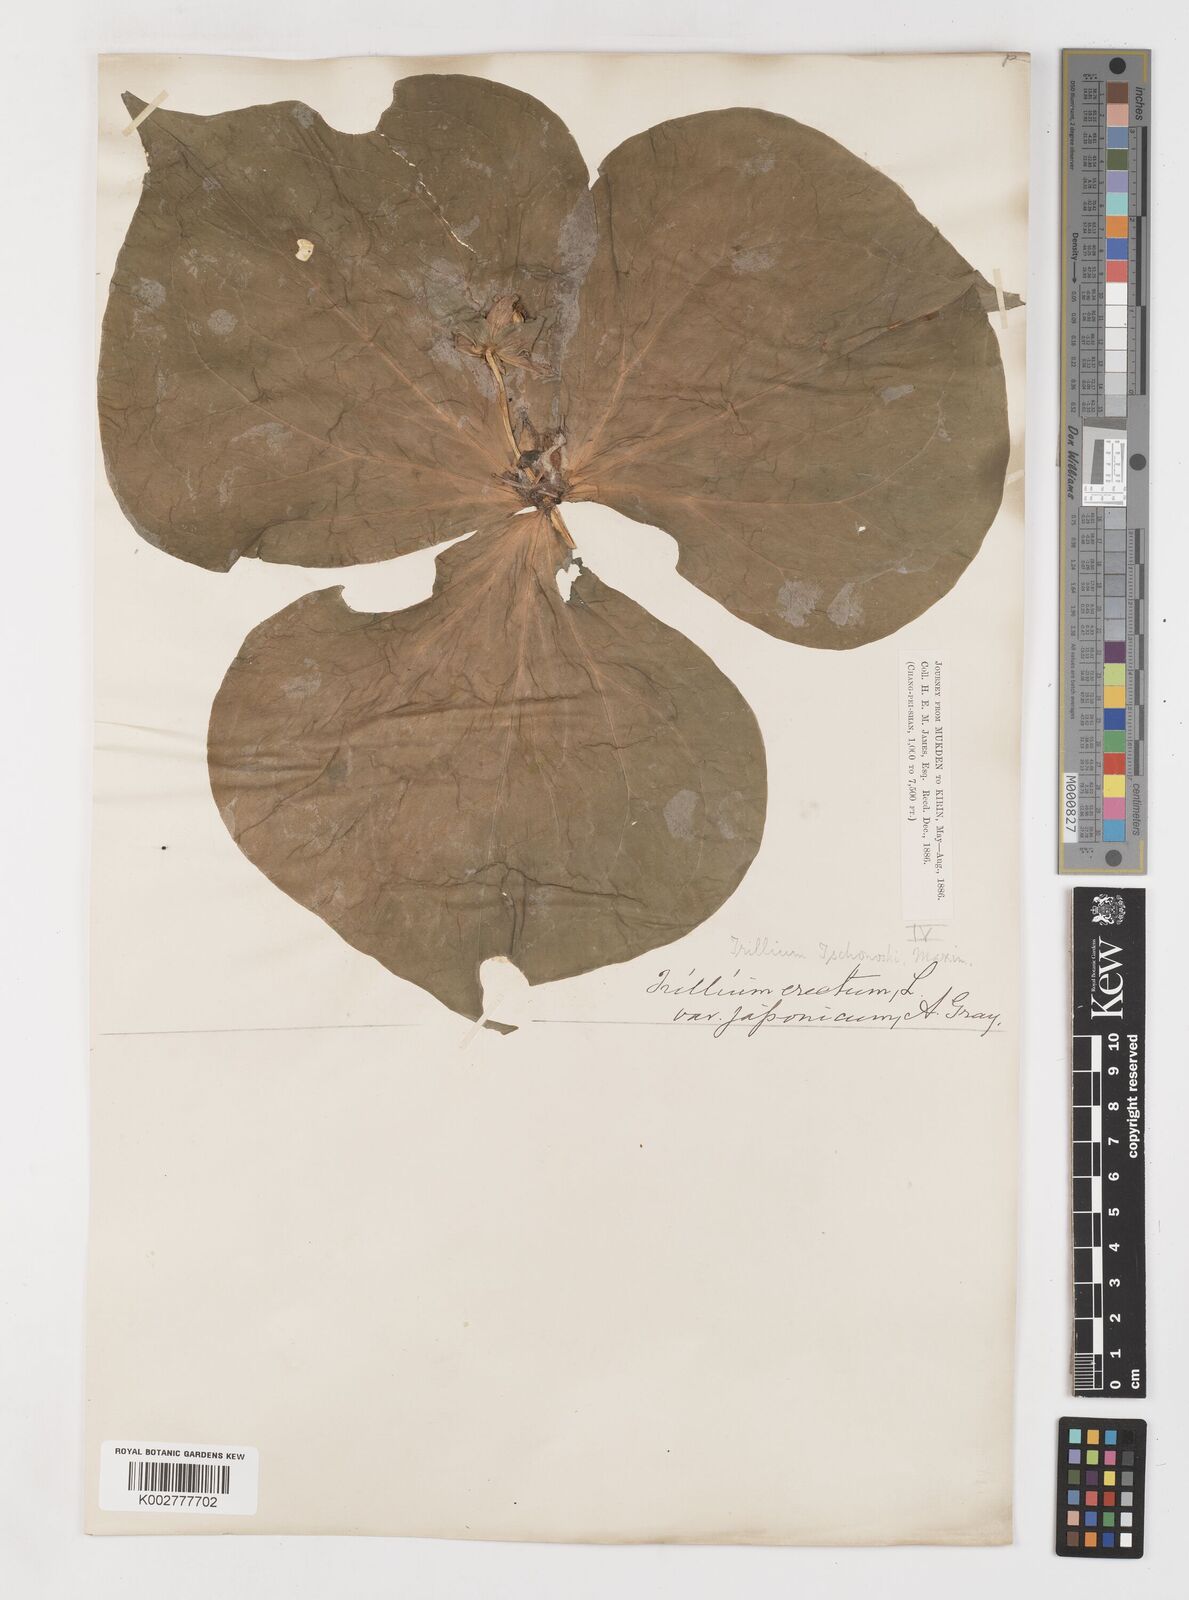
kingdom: Plantae
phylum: Tracheophyta
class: Liliopsida
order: Liliales
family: Melanthiaceae
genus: Trillium
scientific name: Trillium tschonoskii
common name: A pearl on head
